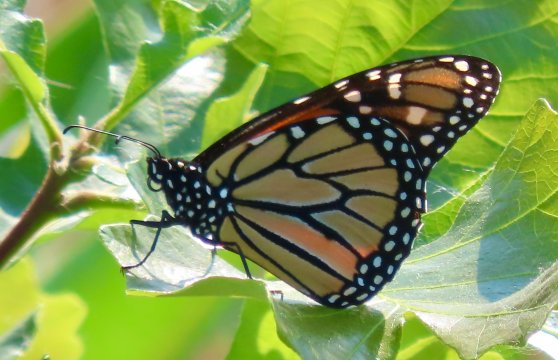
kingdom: Animalia
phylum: Arthropoda
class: Insecta
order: Lepidoptera
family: Nymphalidae
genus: Danaus
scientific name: Danaus plexippus
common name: Monarch
